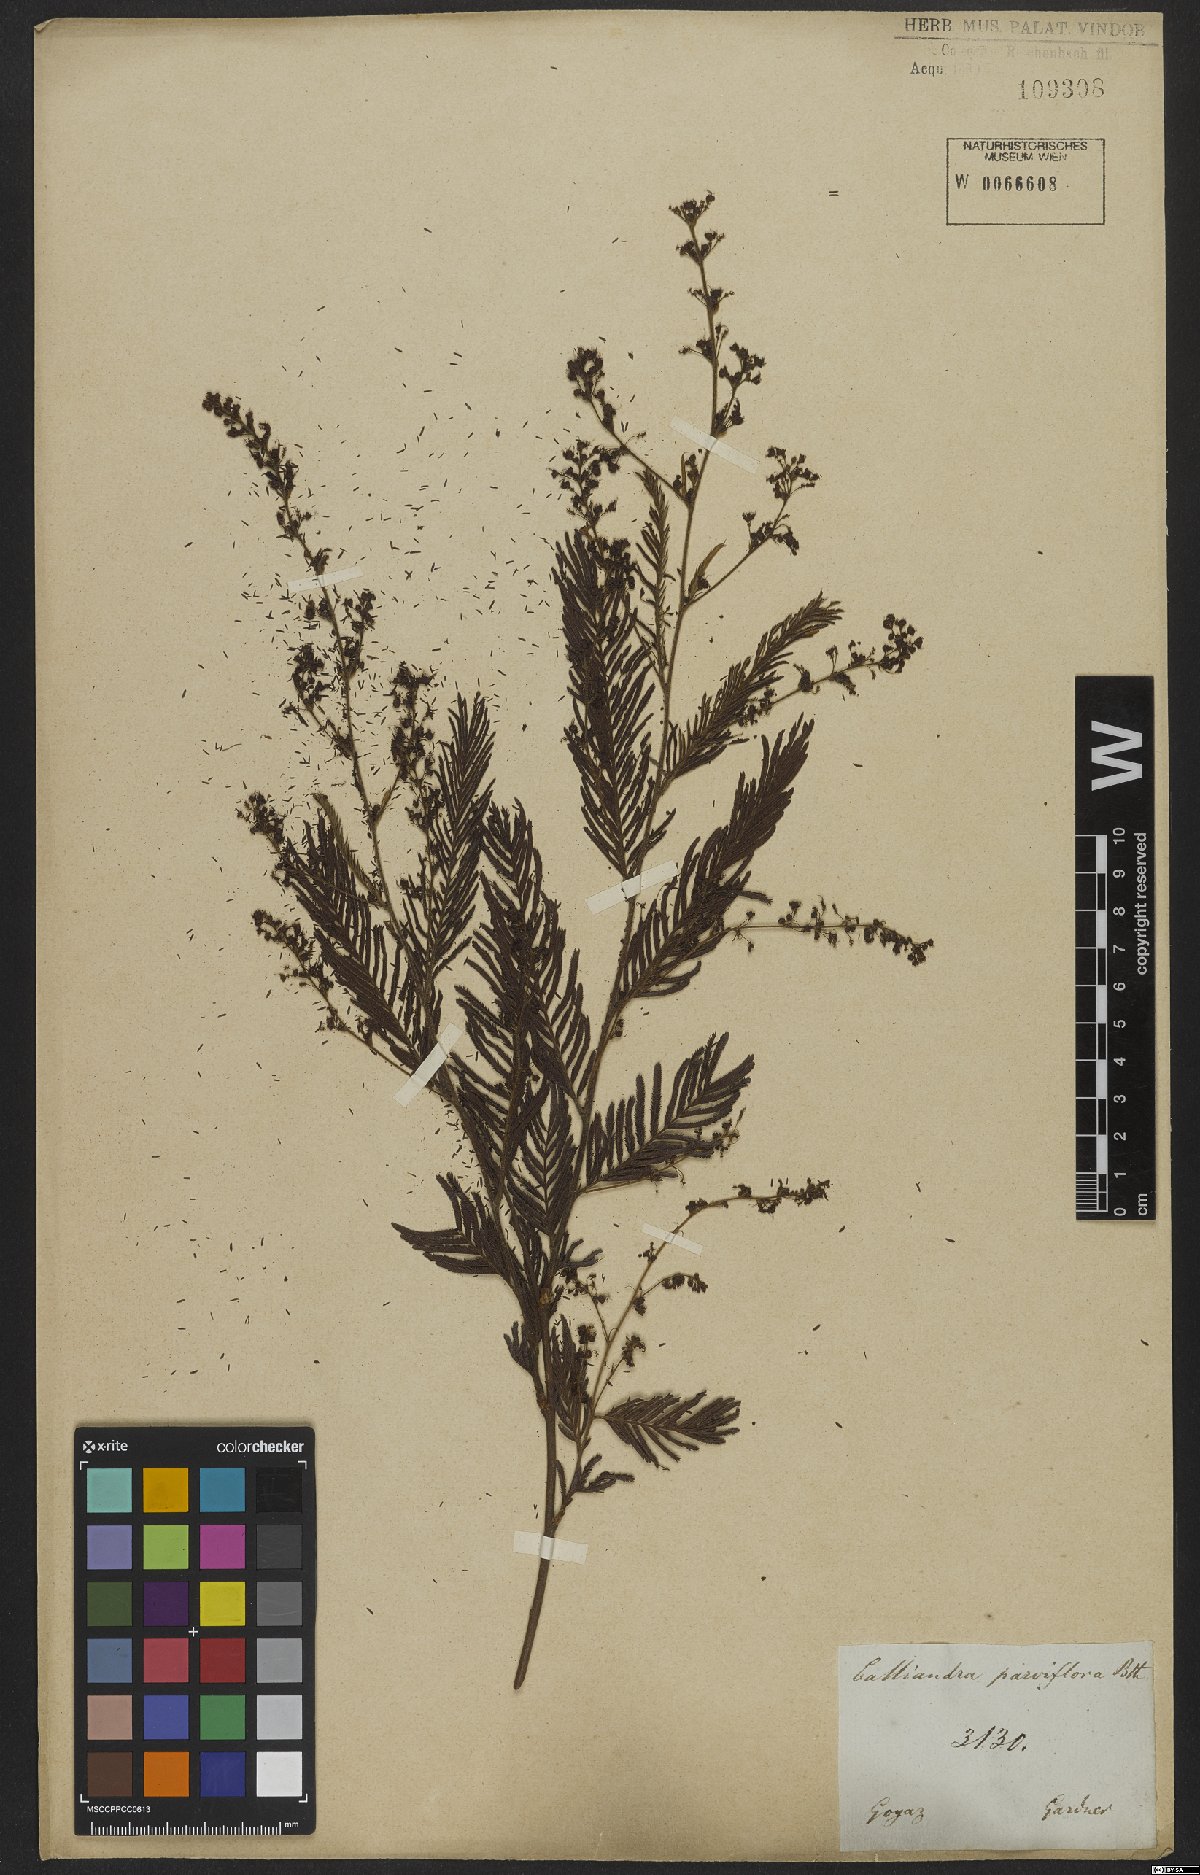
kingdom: Plantae
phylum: Tracheophyta
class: Magnoliopsida
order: Fabales
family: Fabaceae
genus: Calliandra
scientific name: Calliandra parviflora
